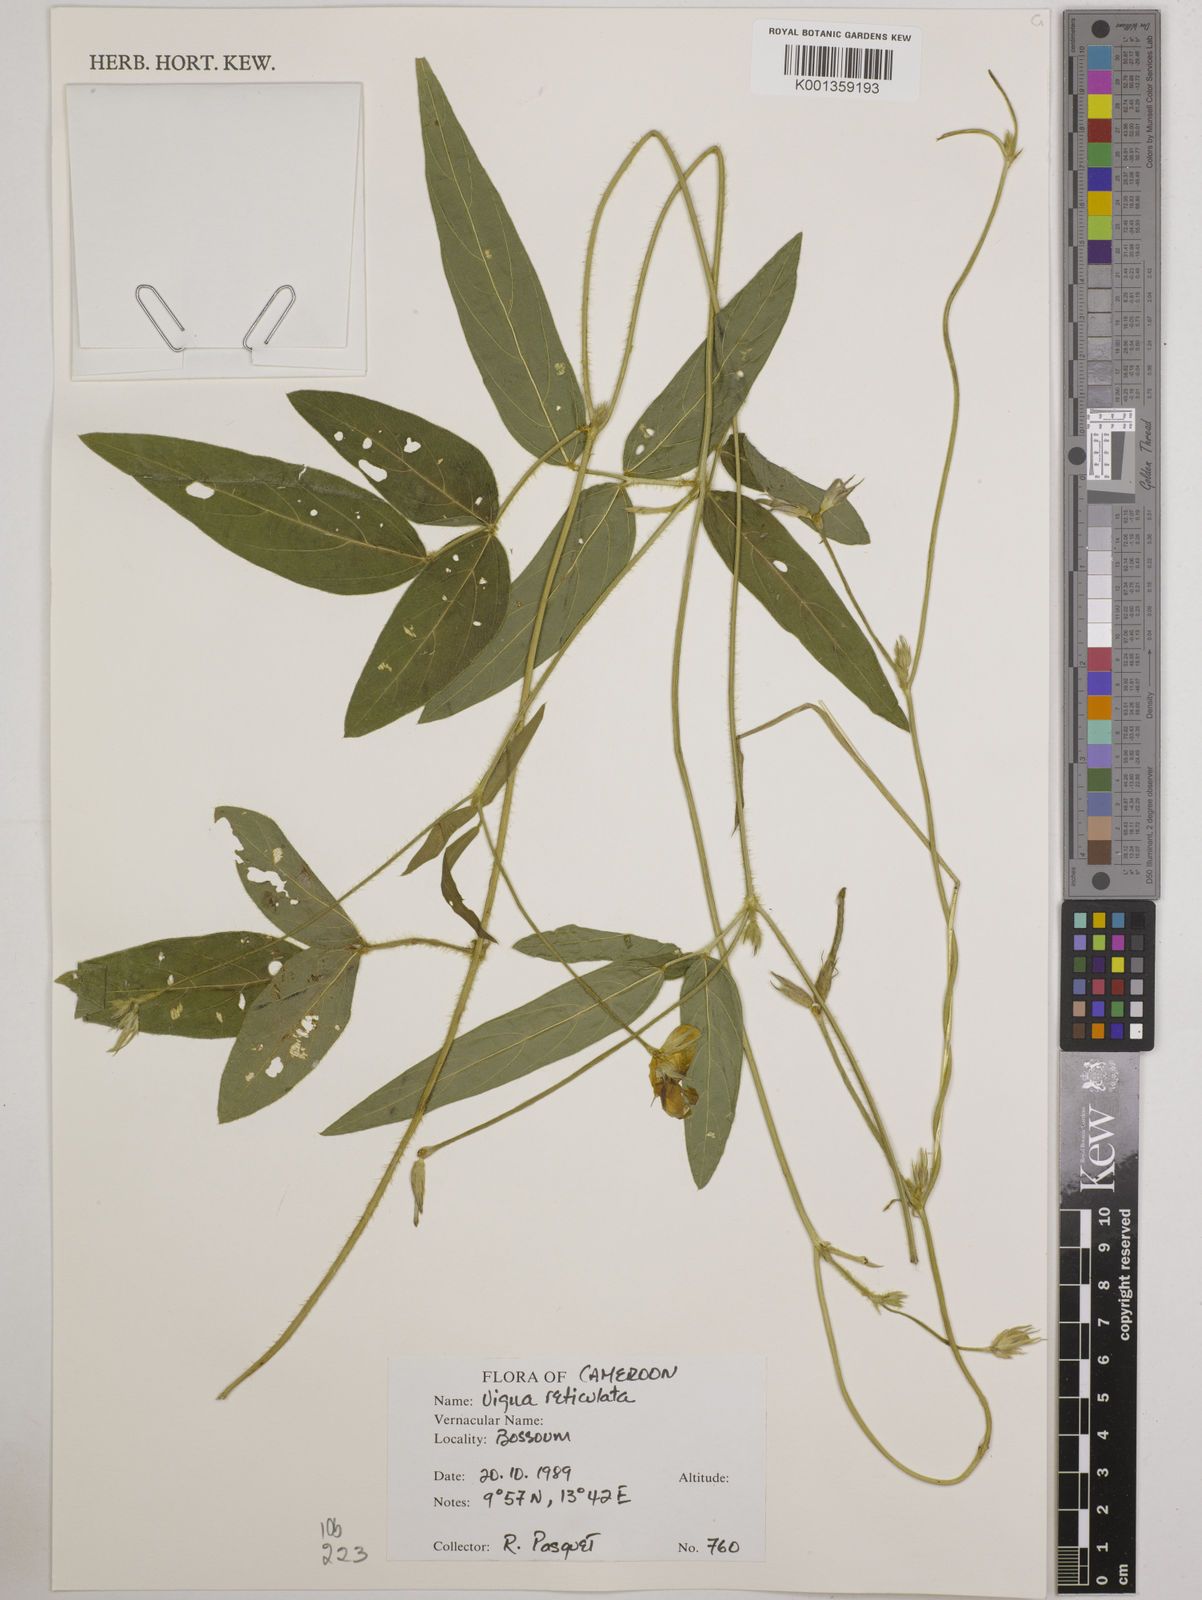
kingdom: Plantae
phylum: Tracheophyta
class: Magnoliopsida
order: Fabales
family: Fabaceae
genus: Vigna
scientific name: Vigna reticulata
